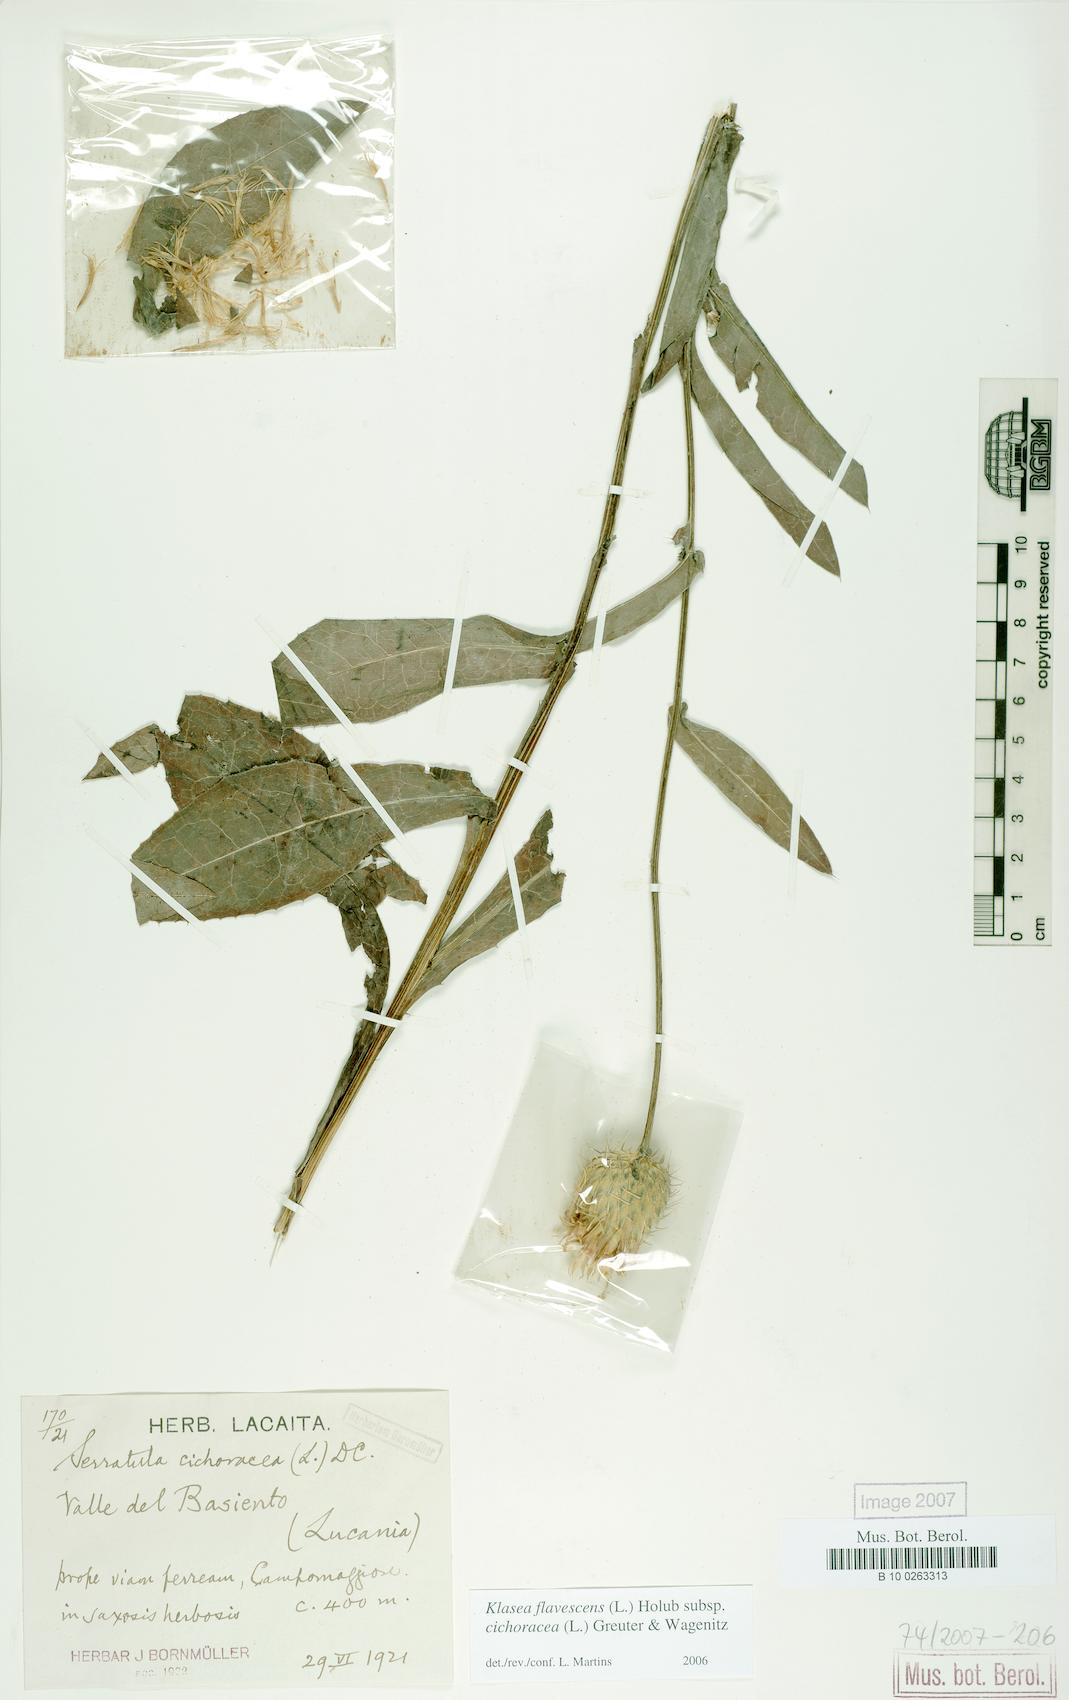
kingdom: Plantae
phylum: Tracheophyta
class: Magnoliopsida
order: Asterales
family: Asteraceae
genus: Klasea
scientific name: Klasea flavescens
